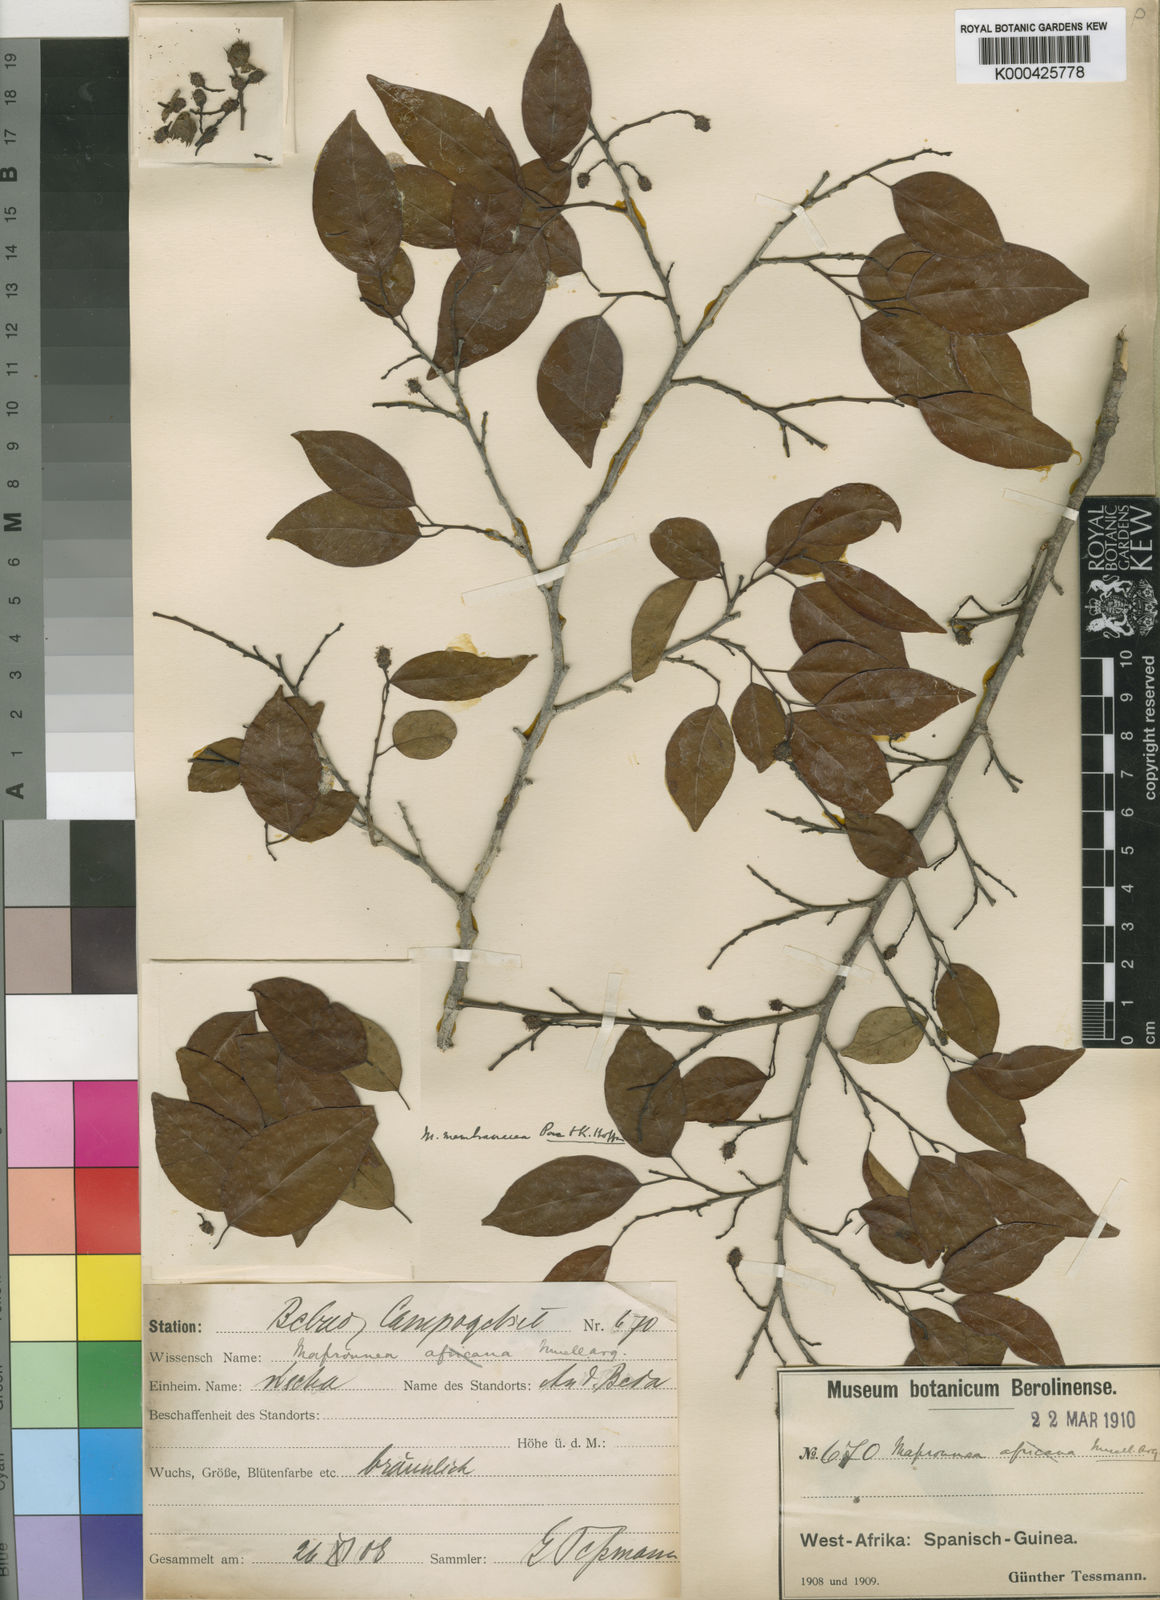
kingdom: Plantae
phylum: Tracheophyta
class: Magnoliopsida
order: Malpighiales
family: Euphorbiaceae
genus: Maprounea
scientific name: Maprounea membranacea
